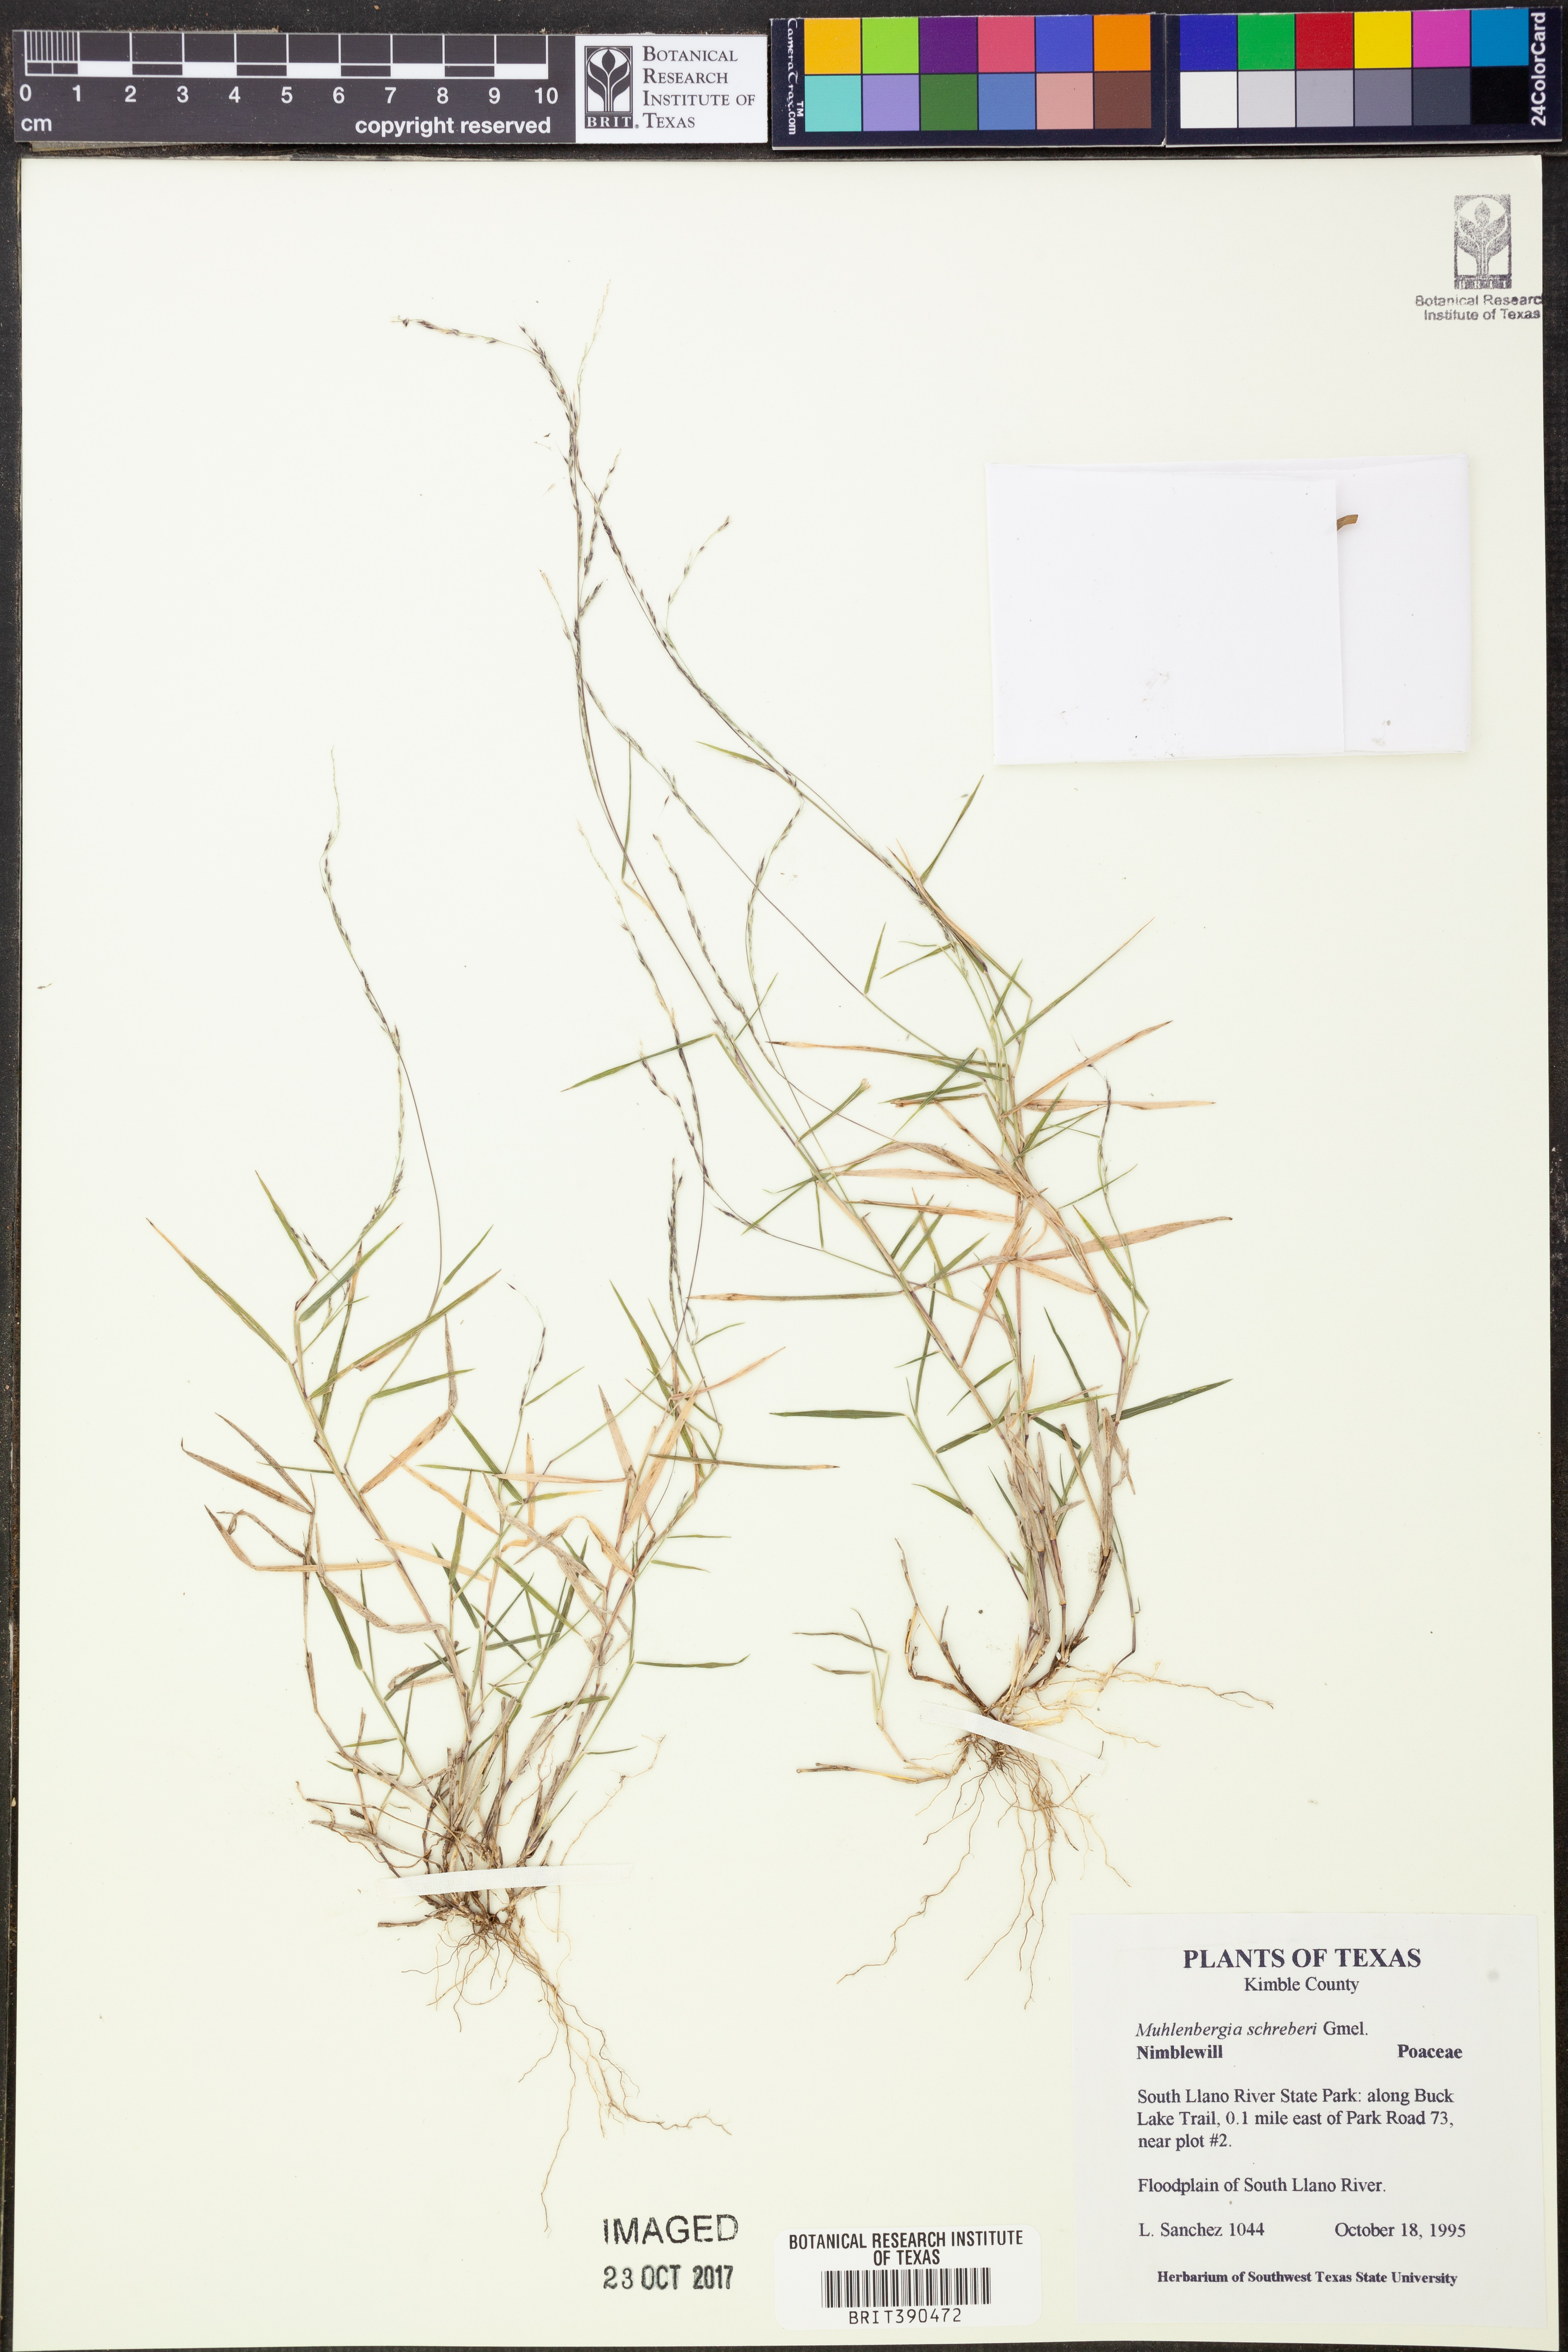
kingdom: Plantae
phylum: Tracheophyta
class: Liliopsida
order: Poales
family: Poaceae
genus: Muhlenbergia
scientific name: Muhlenbergia schreberi
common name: Nimblewill
